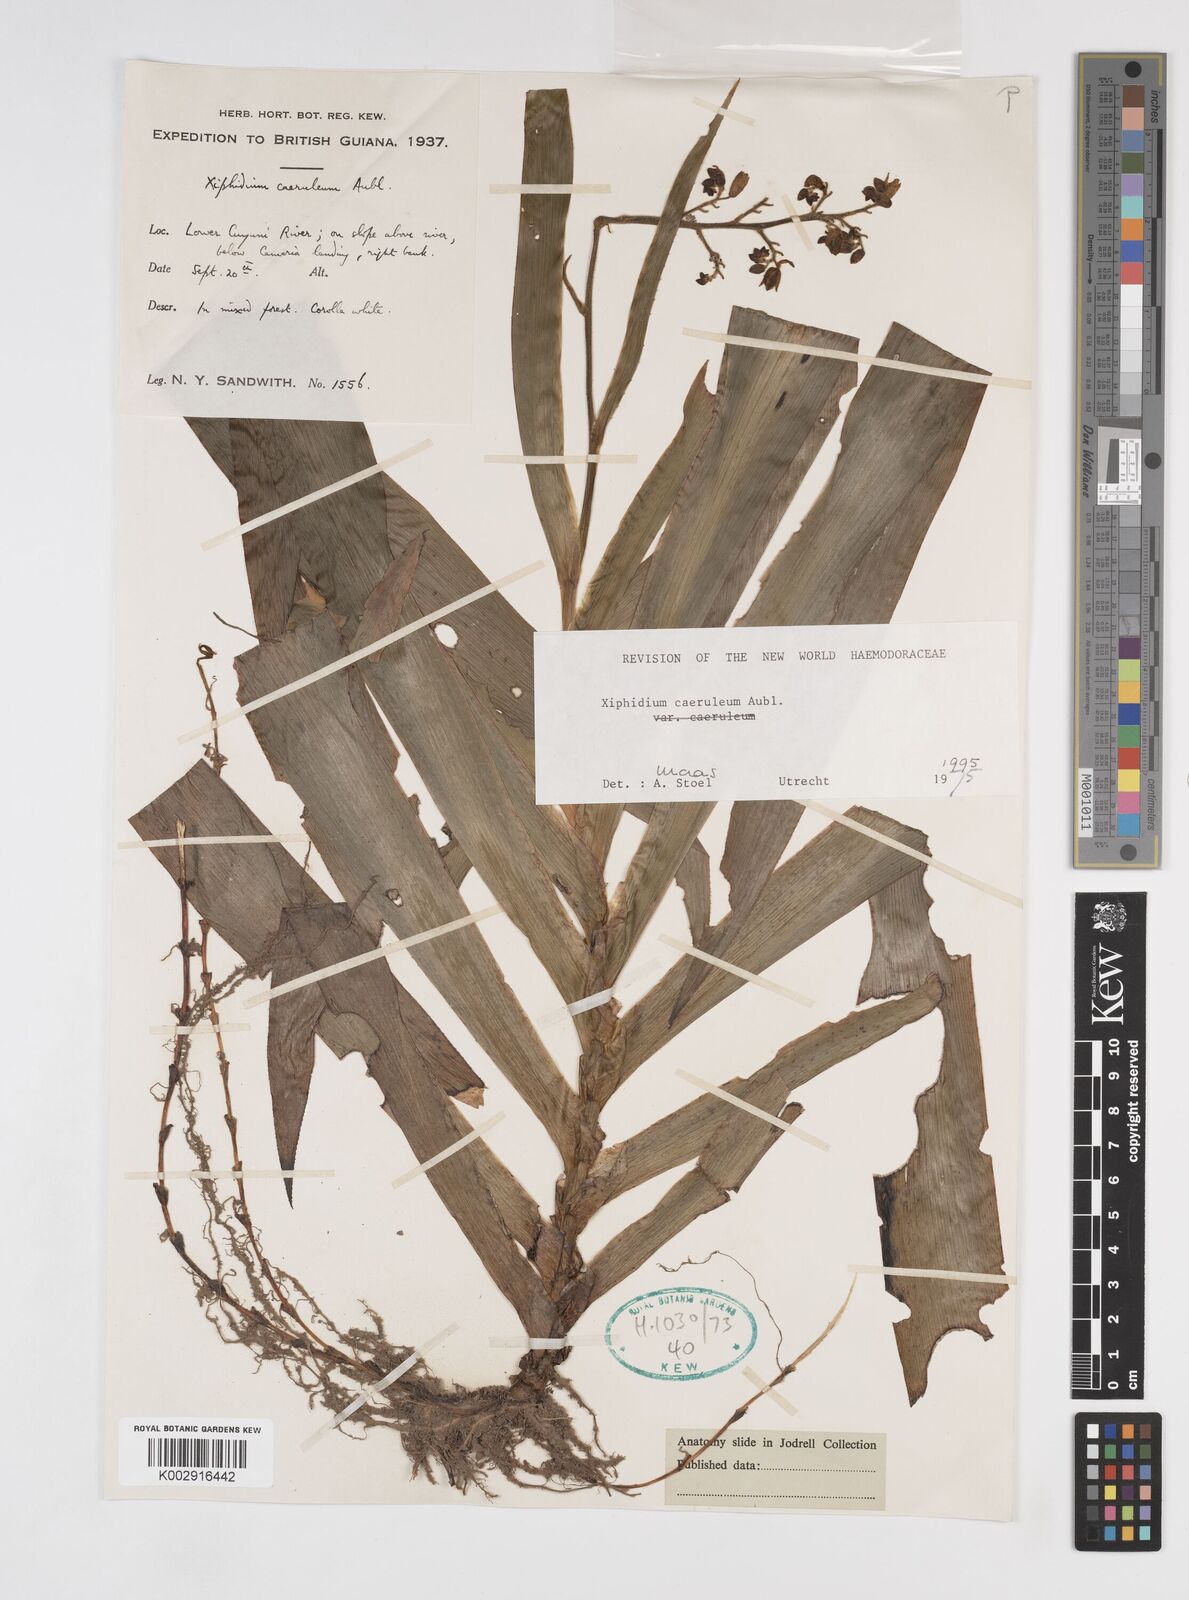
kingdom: Plantae
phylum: Tracheophyta
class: Liliopsida
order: Commelinales
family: Haemodoraceae
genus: Xiphidium
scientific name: Xiphidium caeruleum
